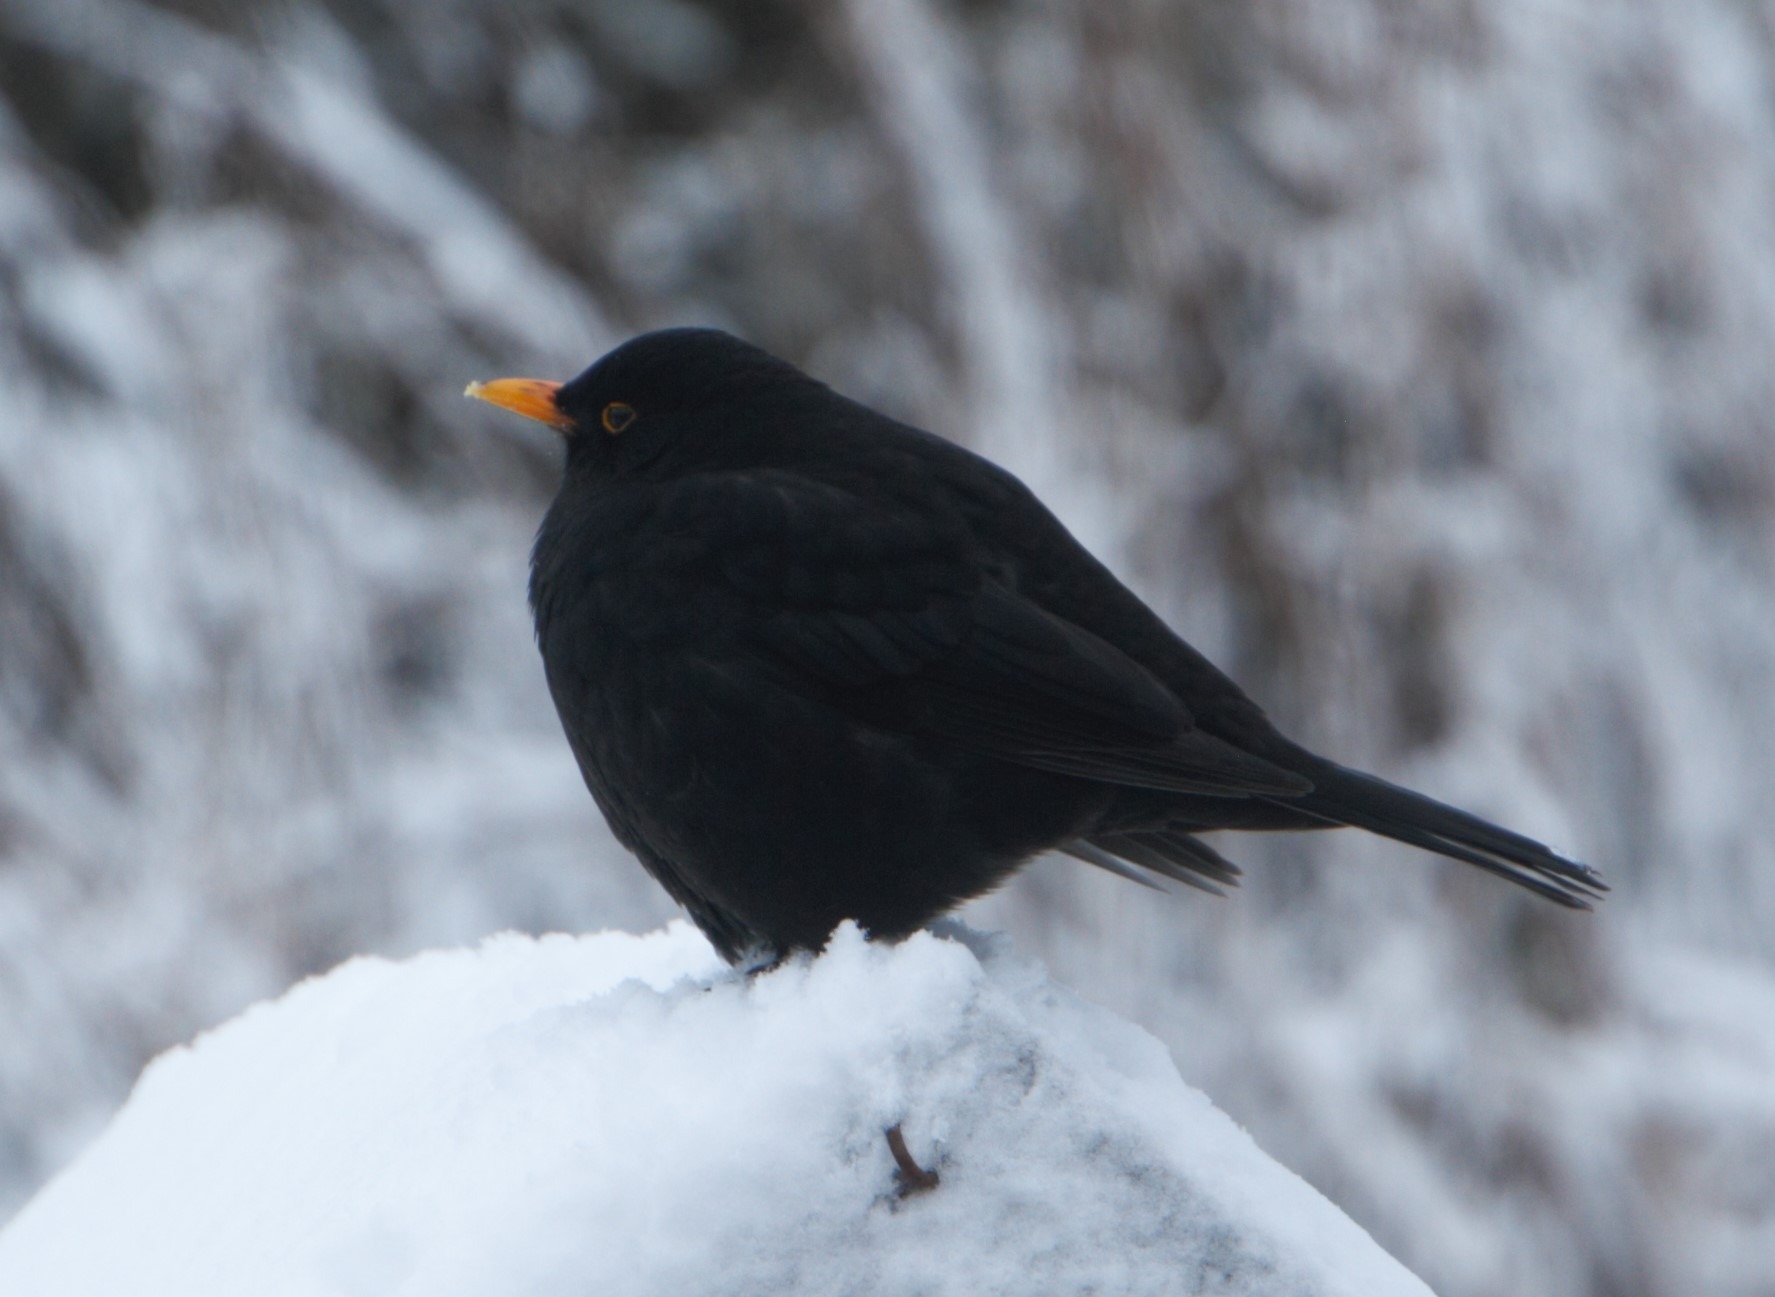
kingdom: Animalia
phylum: Chordata
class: Aves
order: Passeriformes
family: Turdidae
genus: Turdus
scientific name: Turdus merula
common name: Solsort
